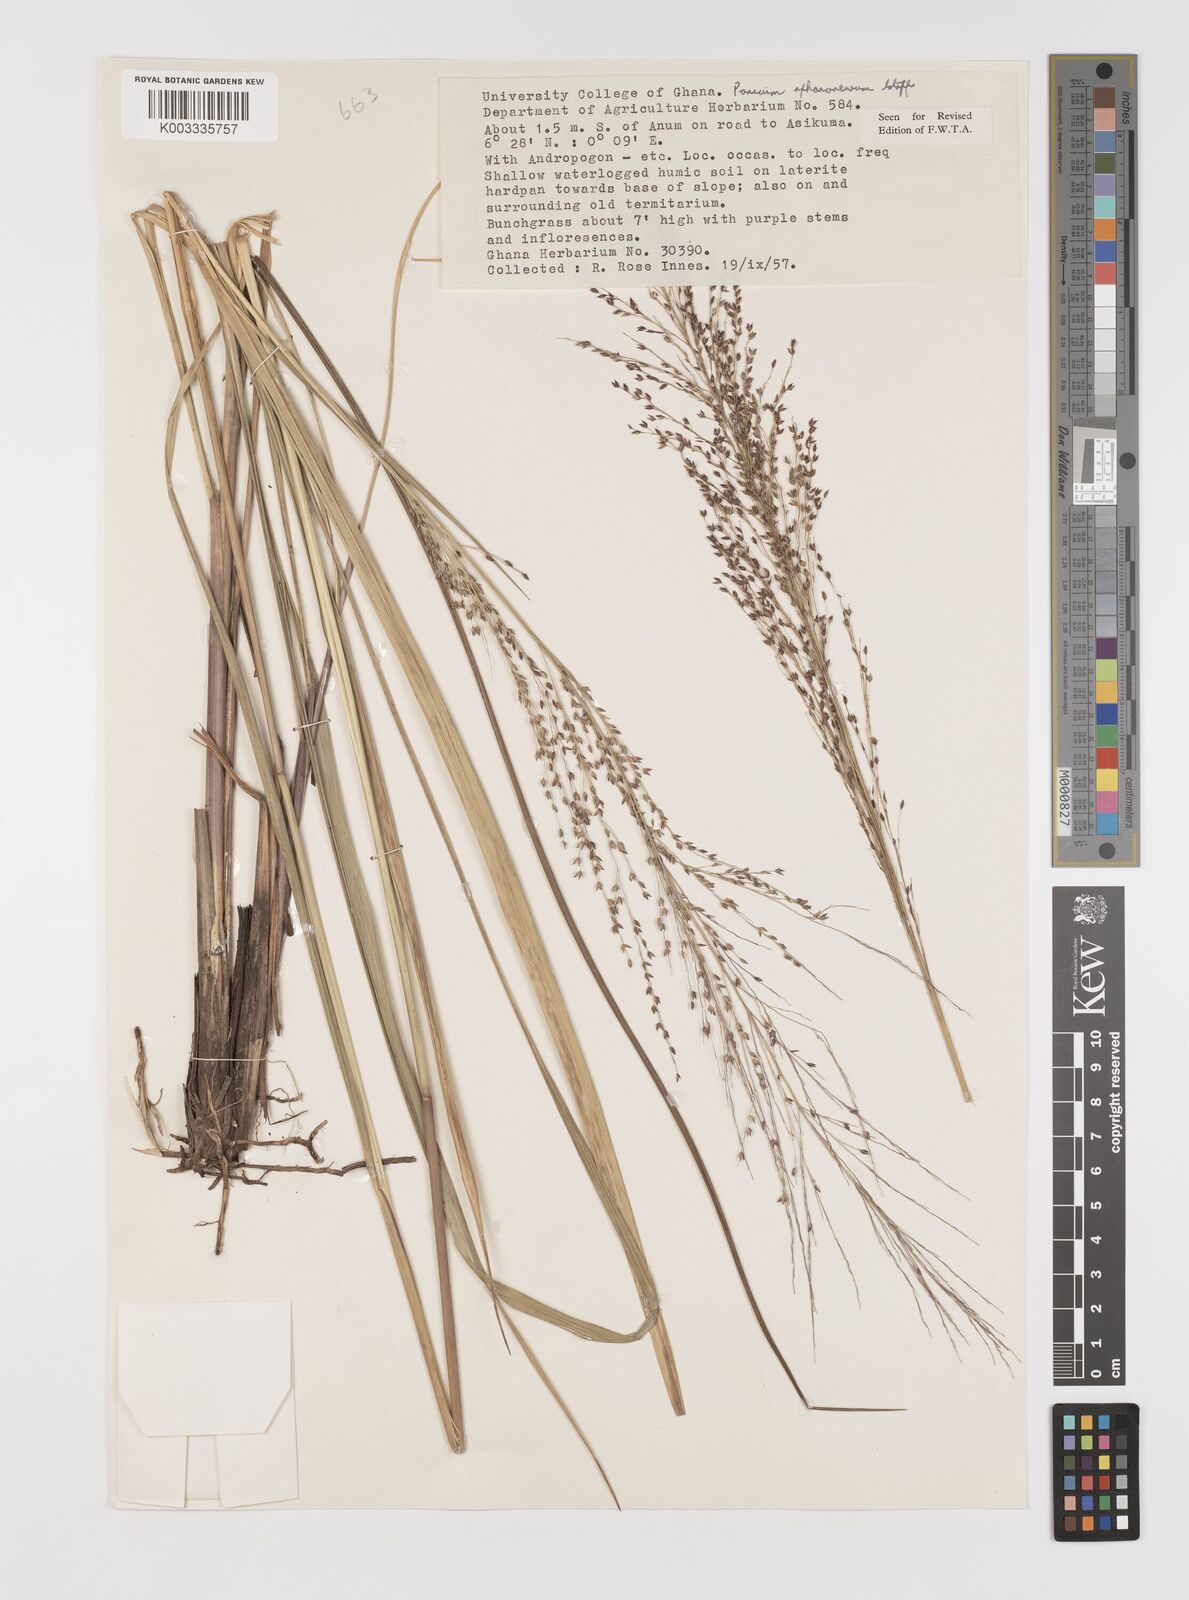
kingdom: Plantae
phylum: Tracheophyta
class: Liliopsida
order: Poales
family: Poaceae
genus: Panicum
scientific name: Panicum fluviicola
